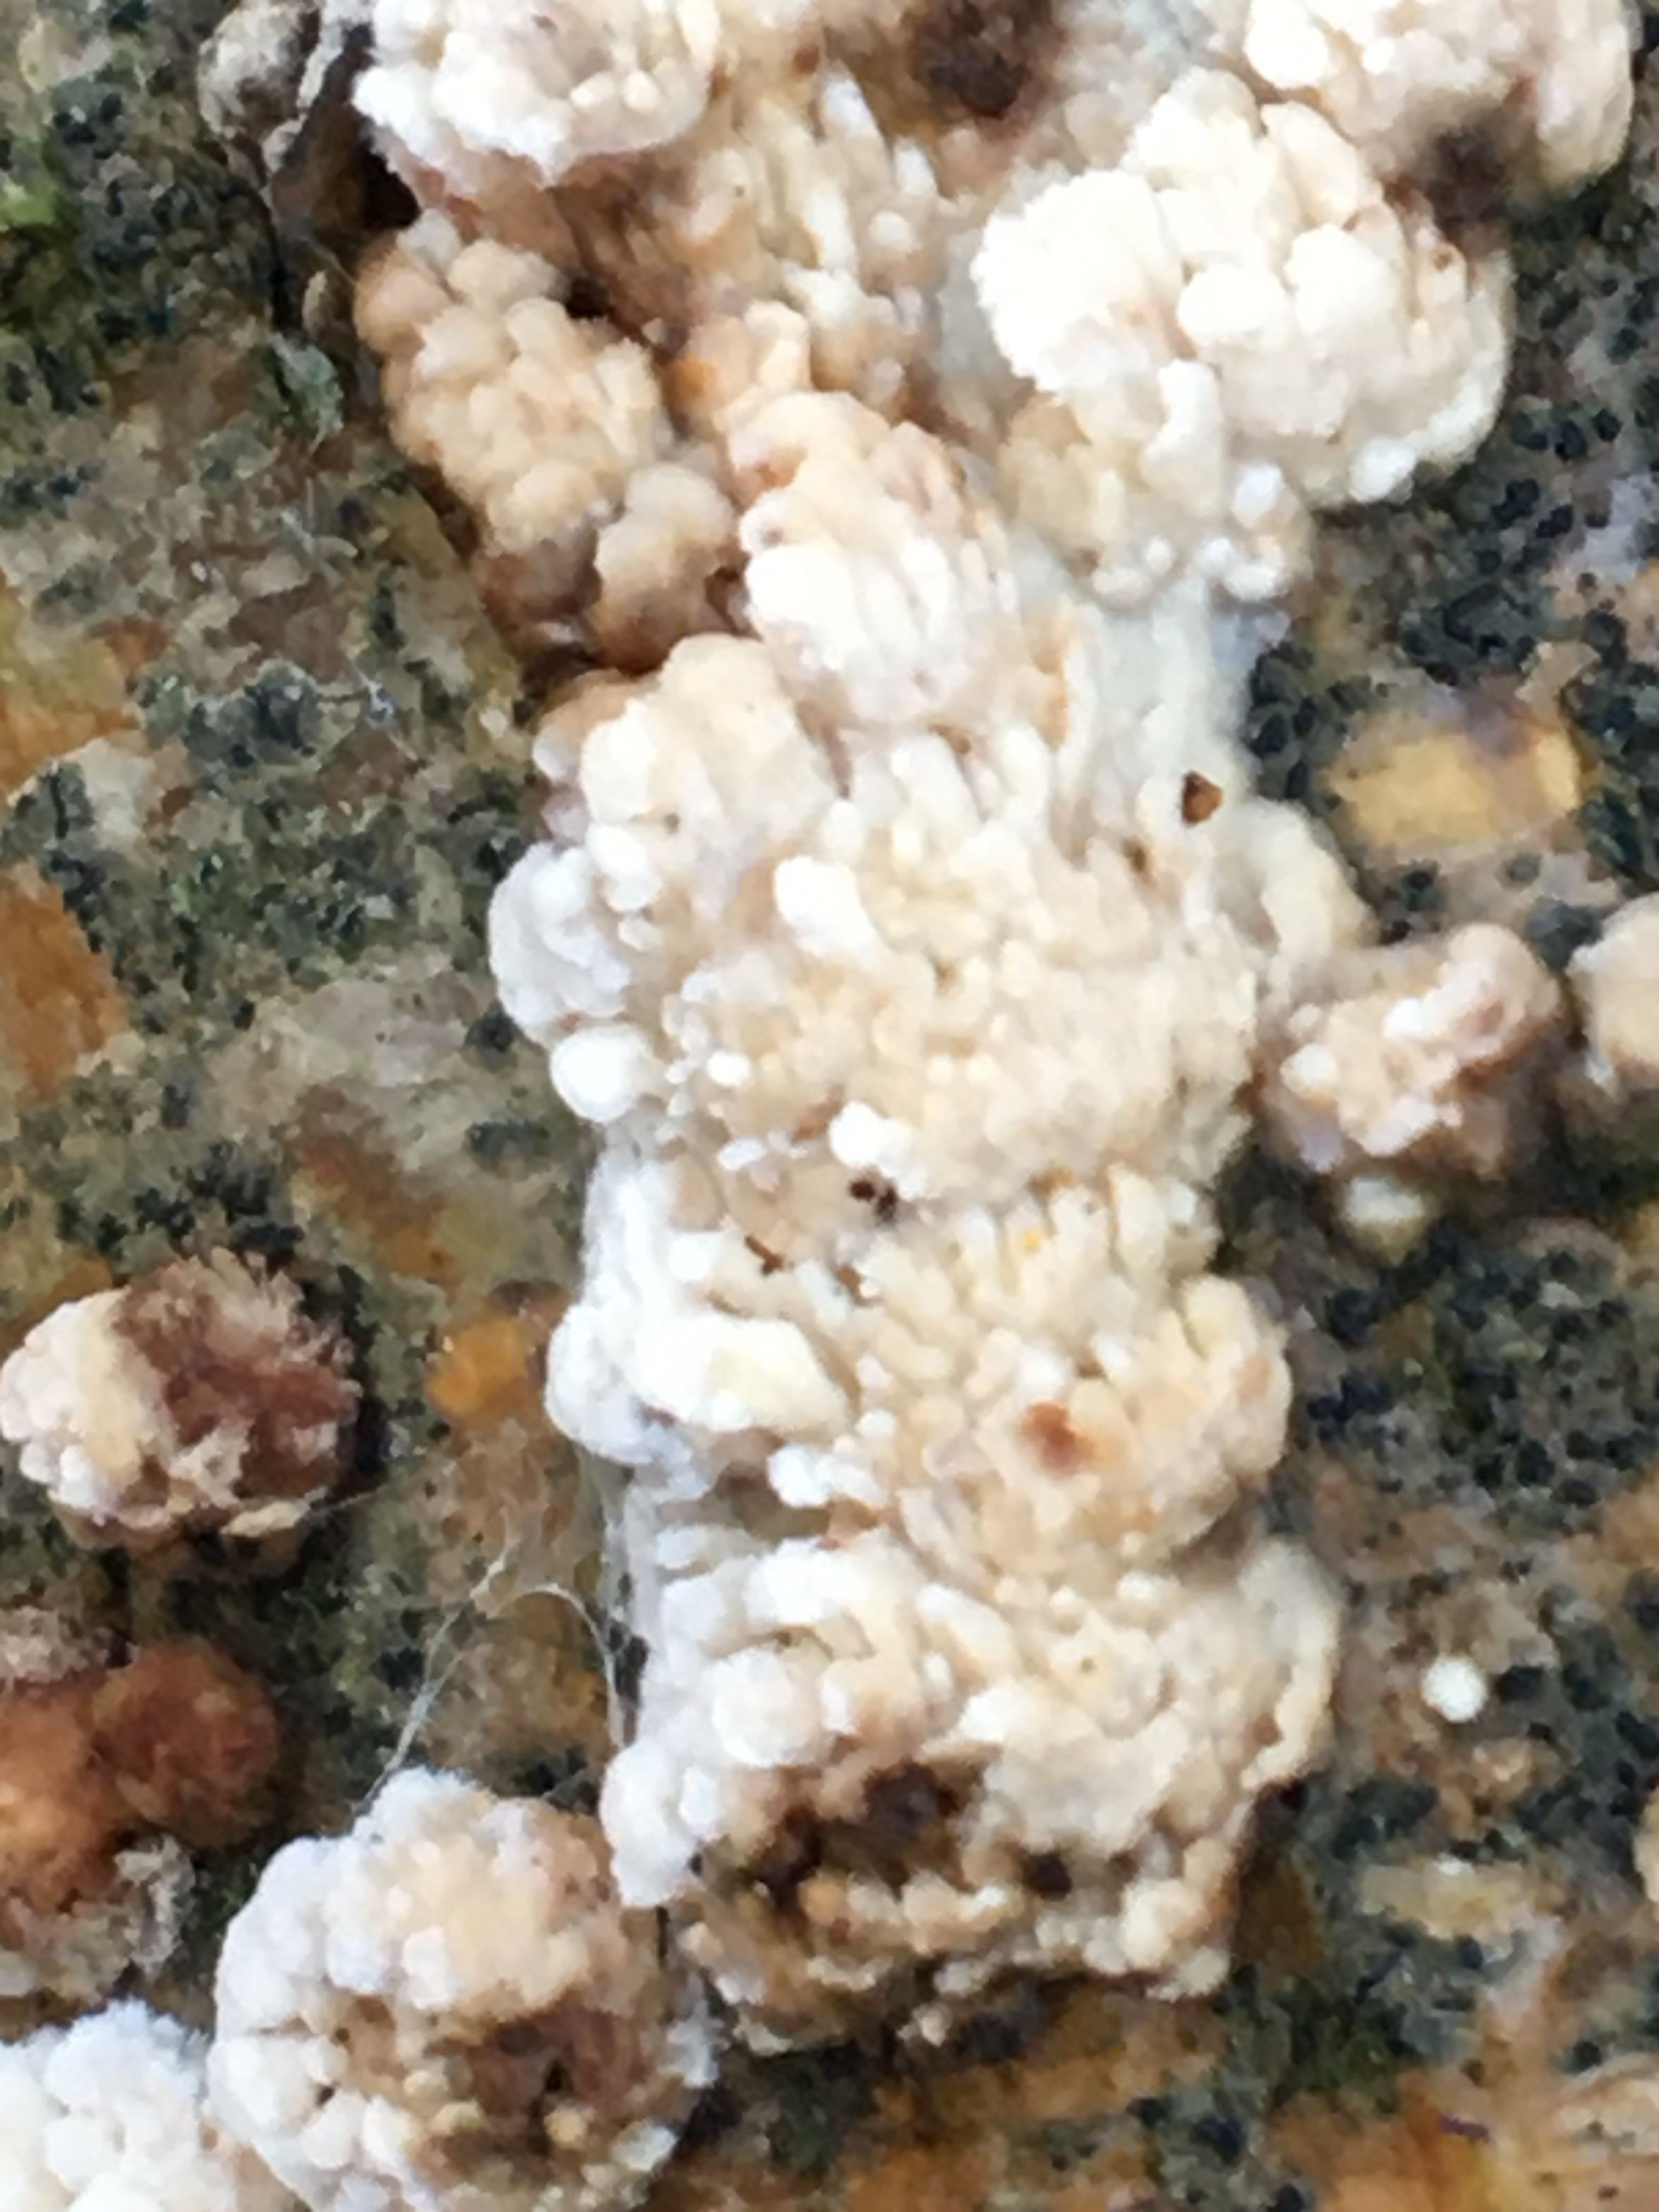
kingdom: Fungi
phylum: Basidiomycota
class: Agaricomycetes
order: Hymenochaetales
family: Schizoporaceae
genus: Xylodon
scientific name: Xylodon radula
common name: grovtandet kalkskind
